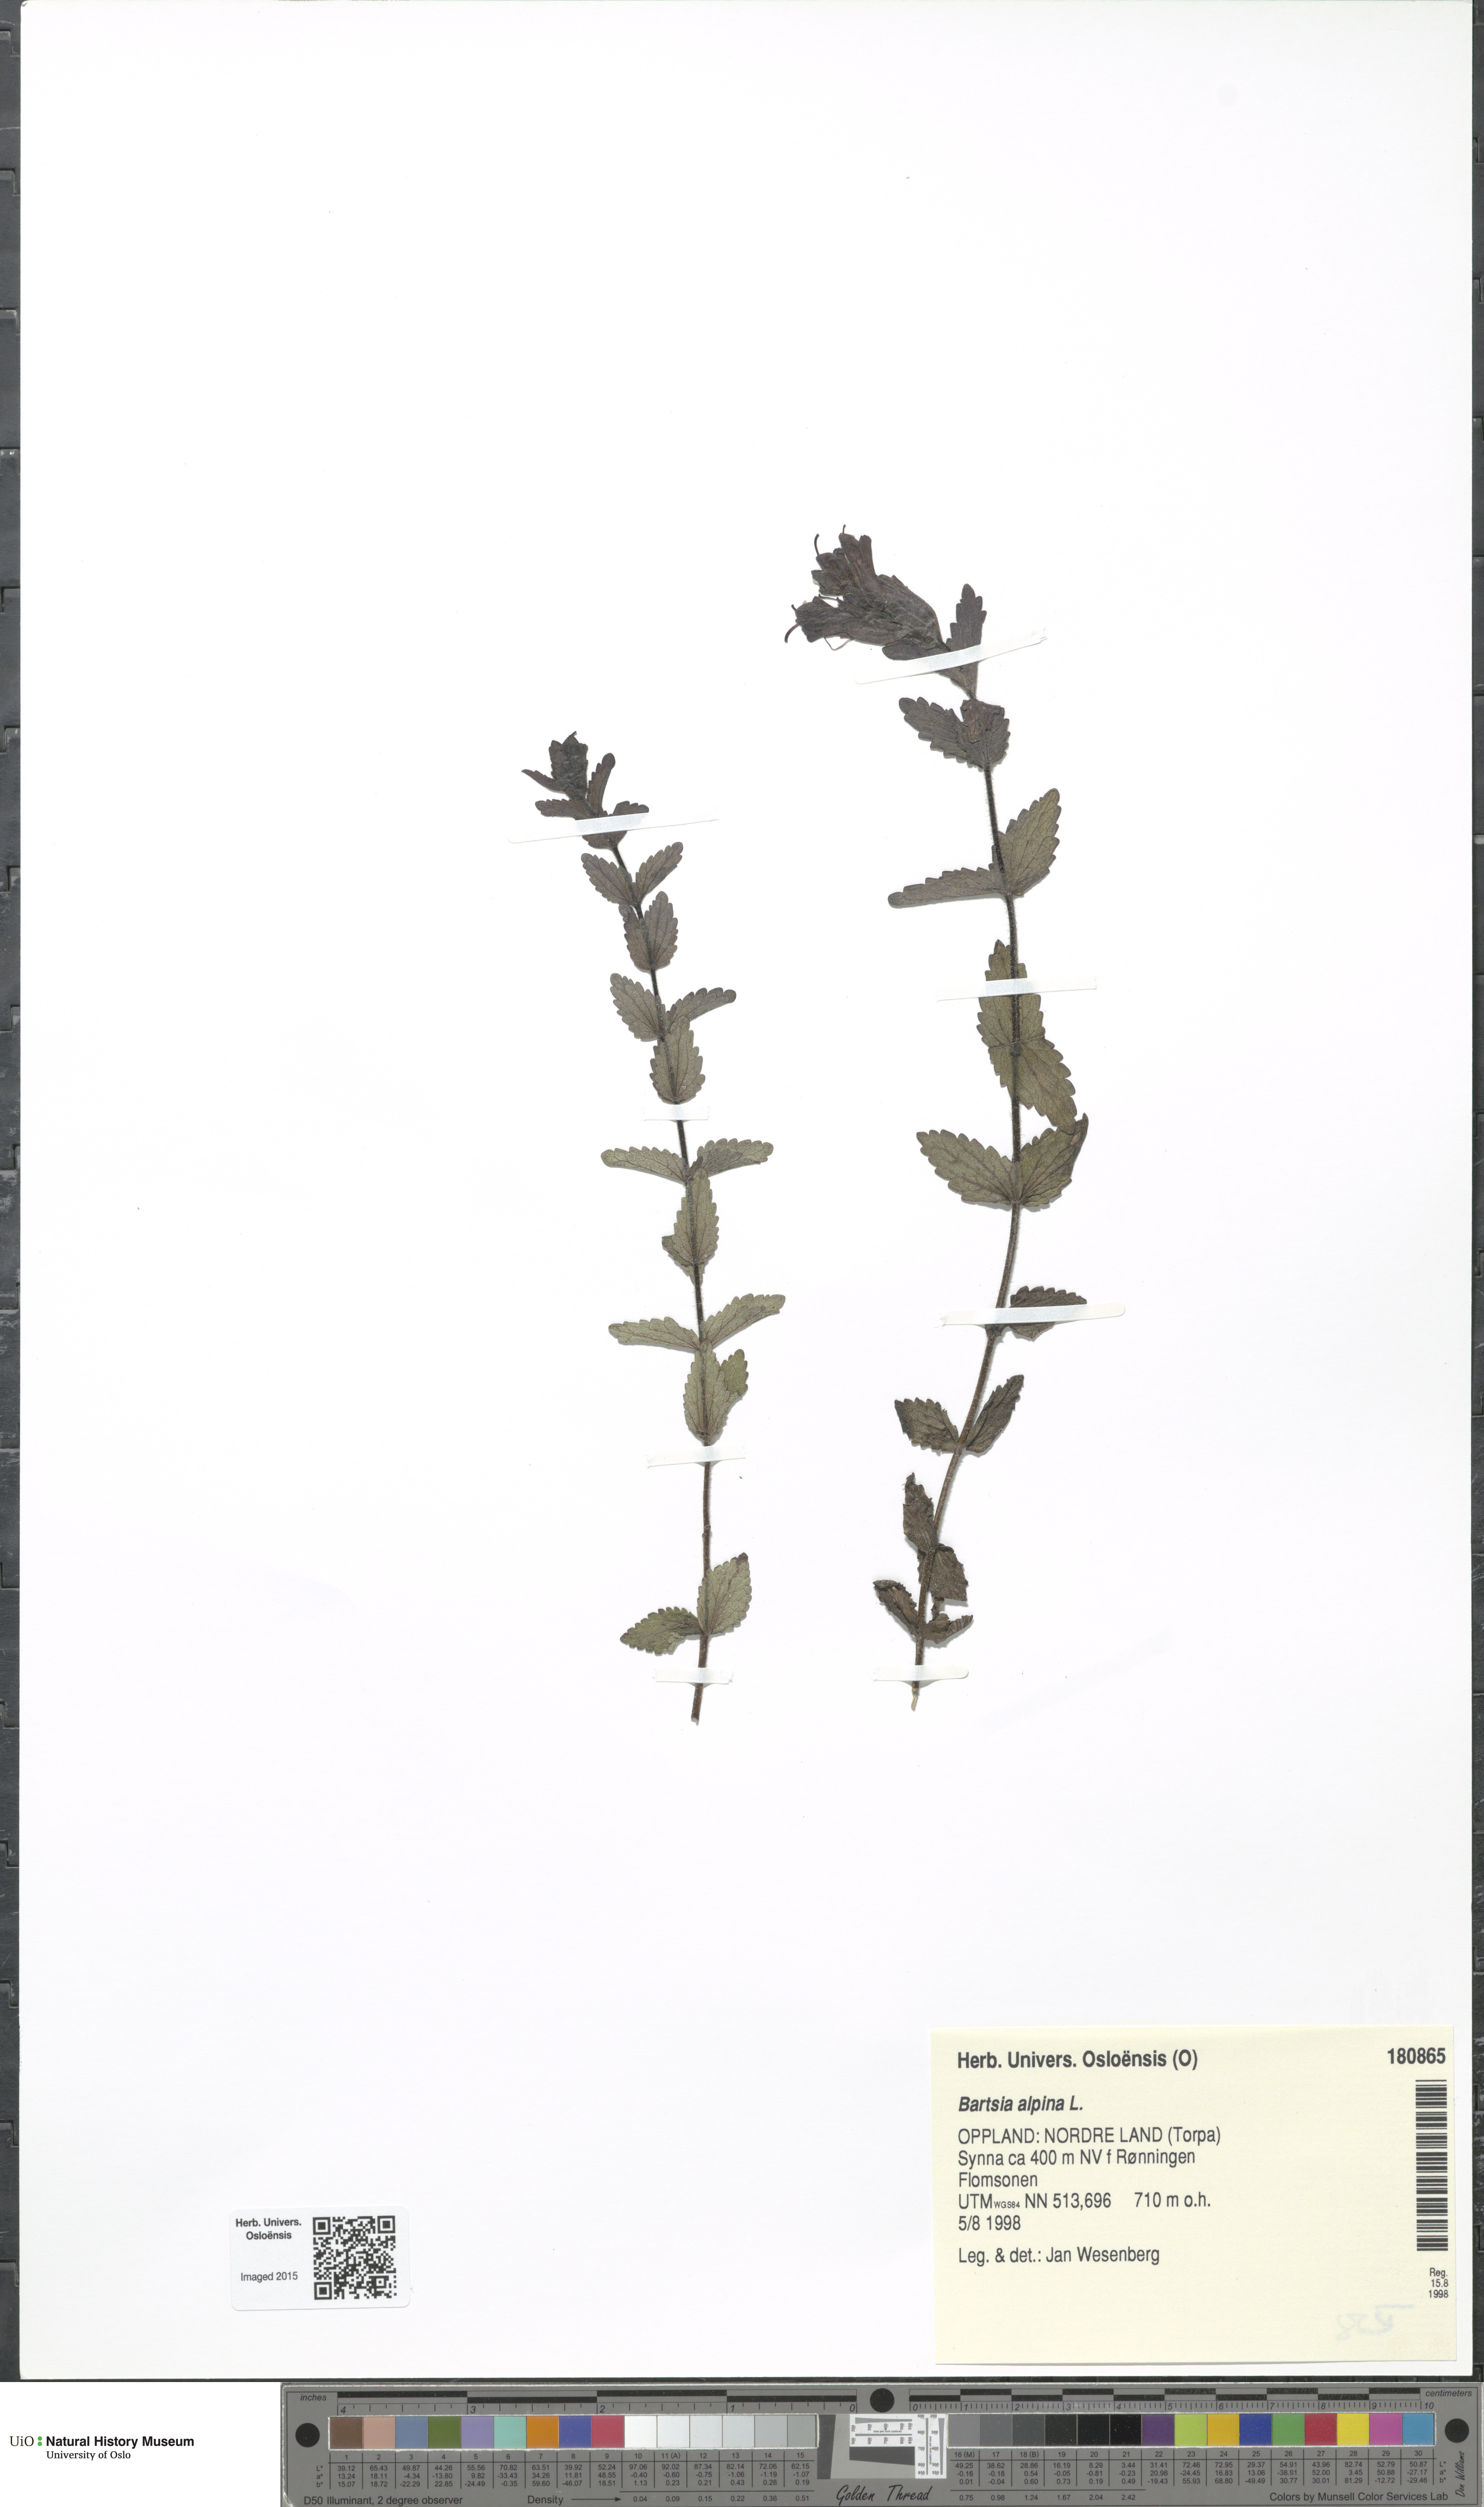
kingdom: Plantae
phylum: Tracheophyta
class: Magnoliopsida
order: Lamiales
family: Orobanchaceae
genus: Bartsia
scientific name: Bartsia alpina
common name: Alpine bartsia
